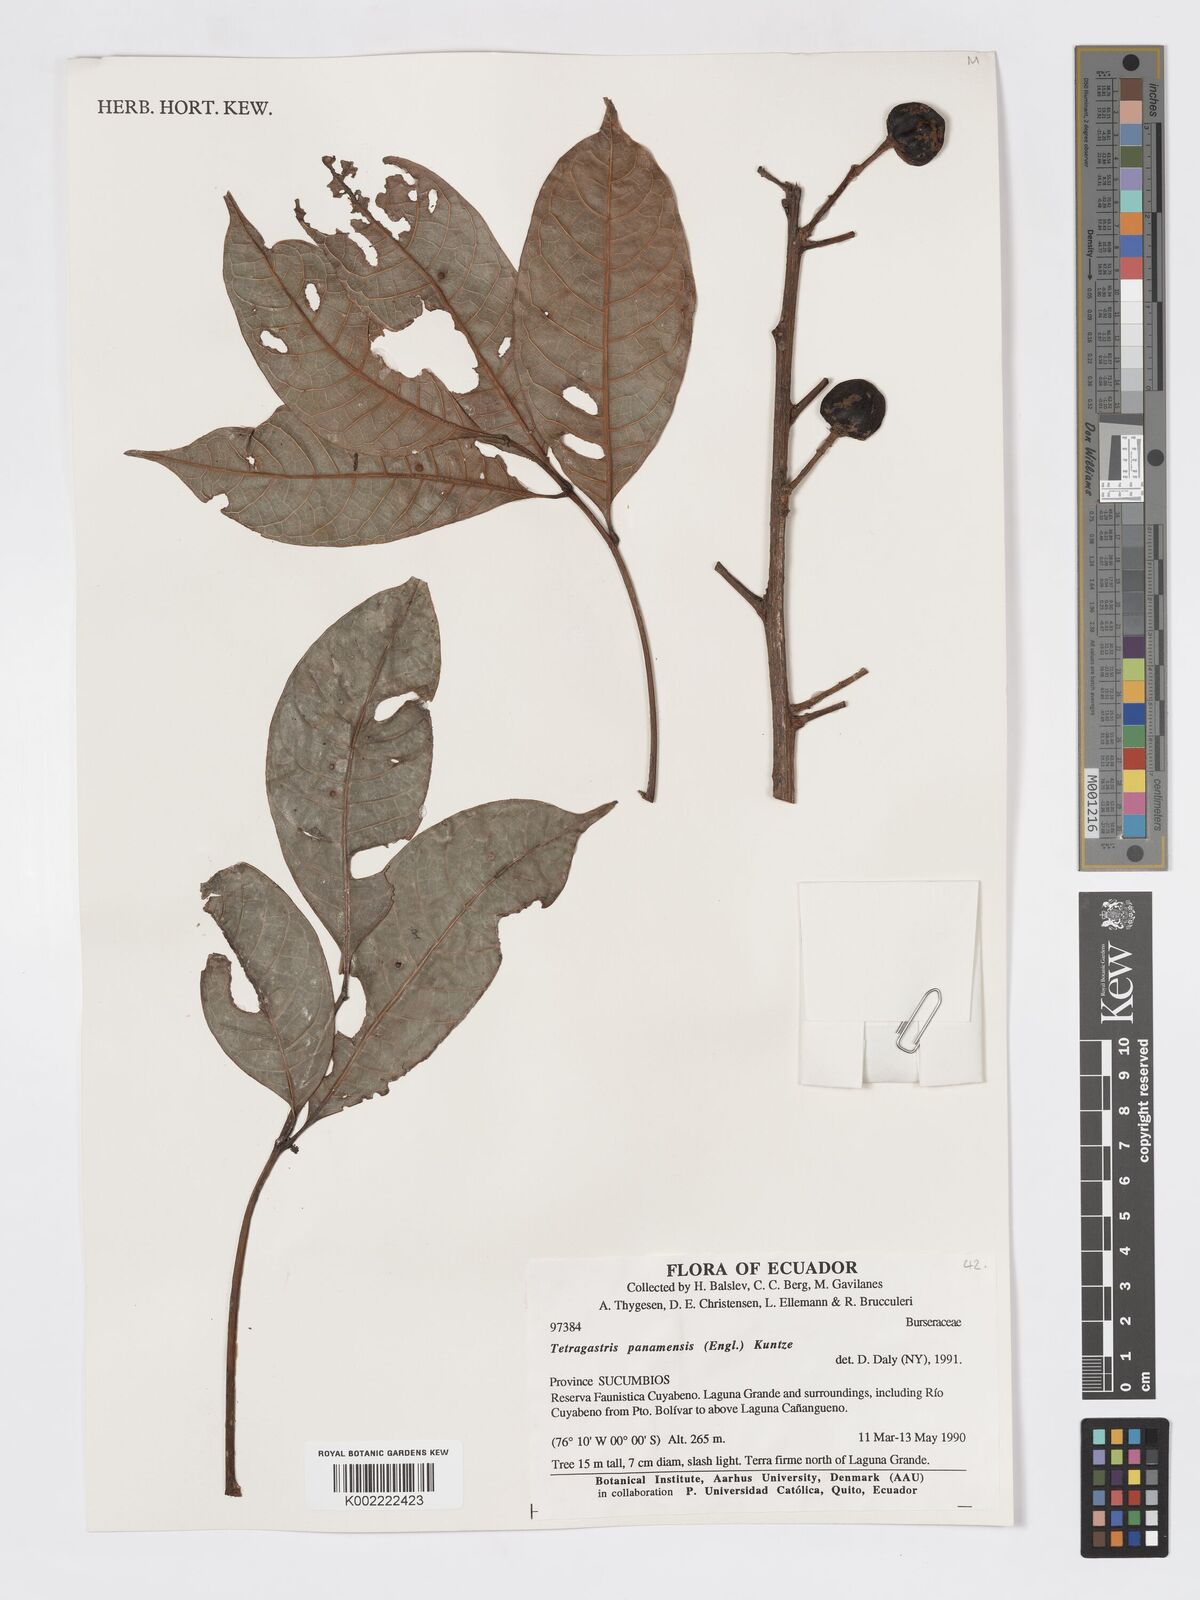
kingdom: Plantae
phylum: Tracheophyta
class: Magnoliopsida
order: Sapindales
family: Burseraceae
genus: Tetragastris
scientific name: Tetragastris panamensis
